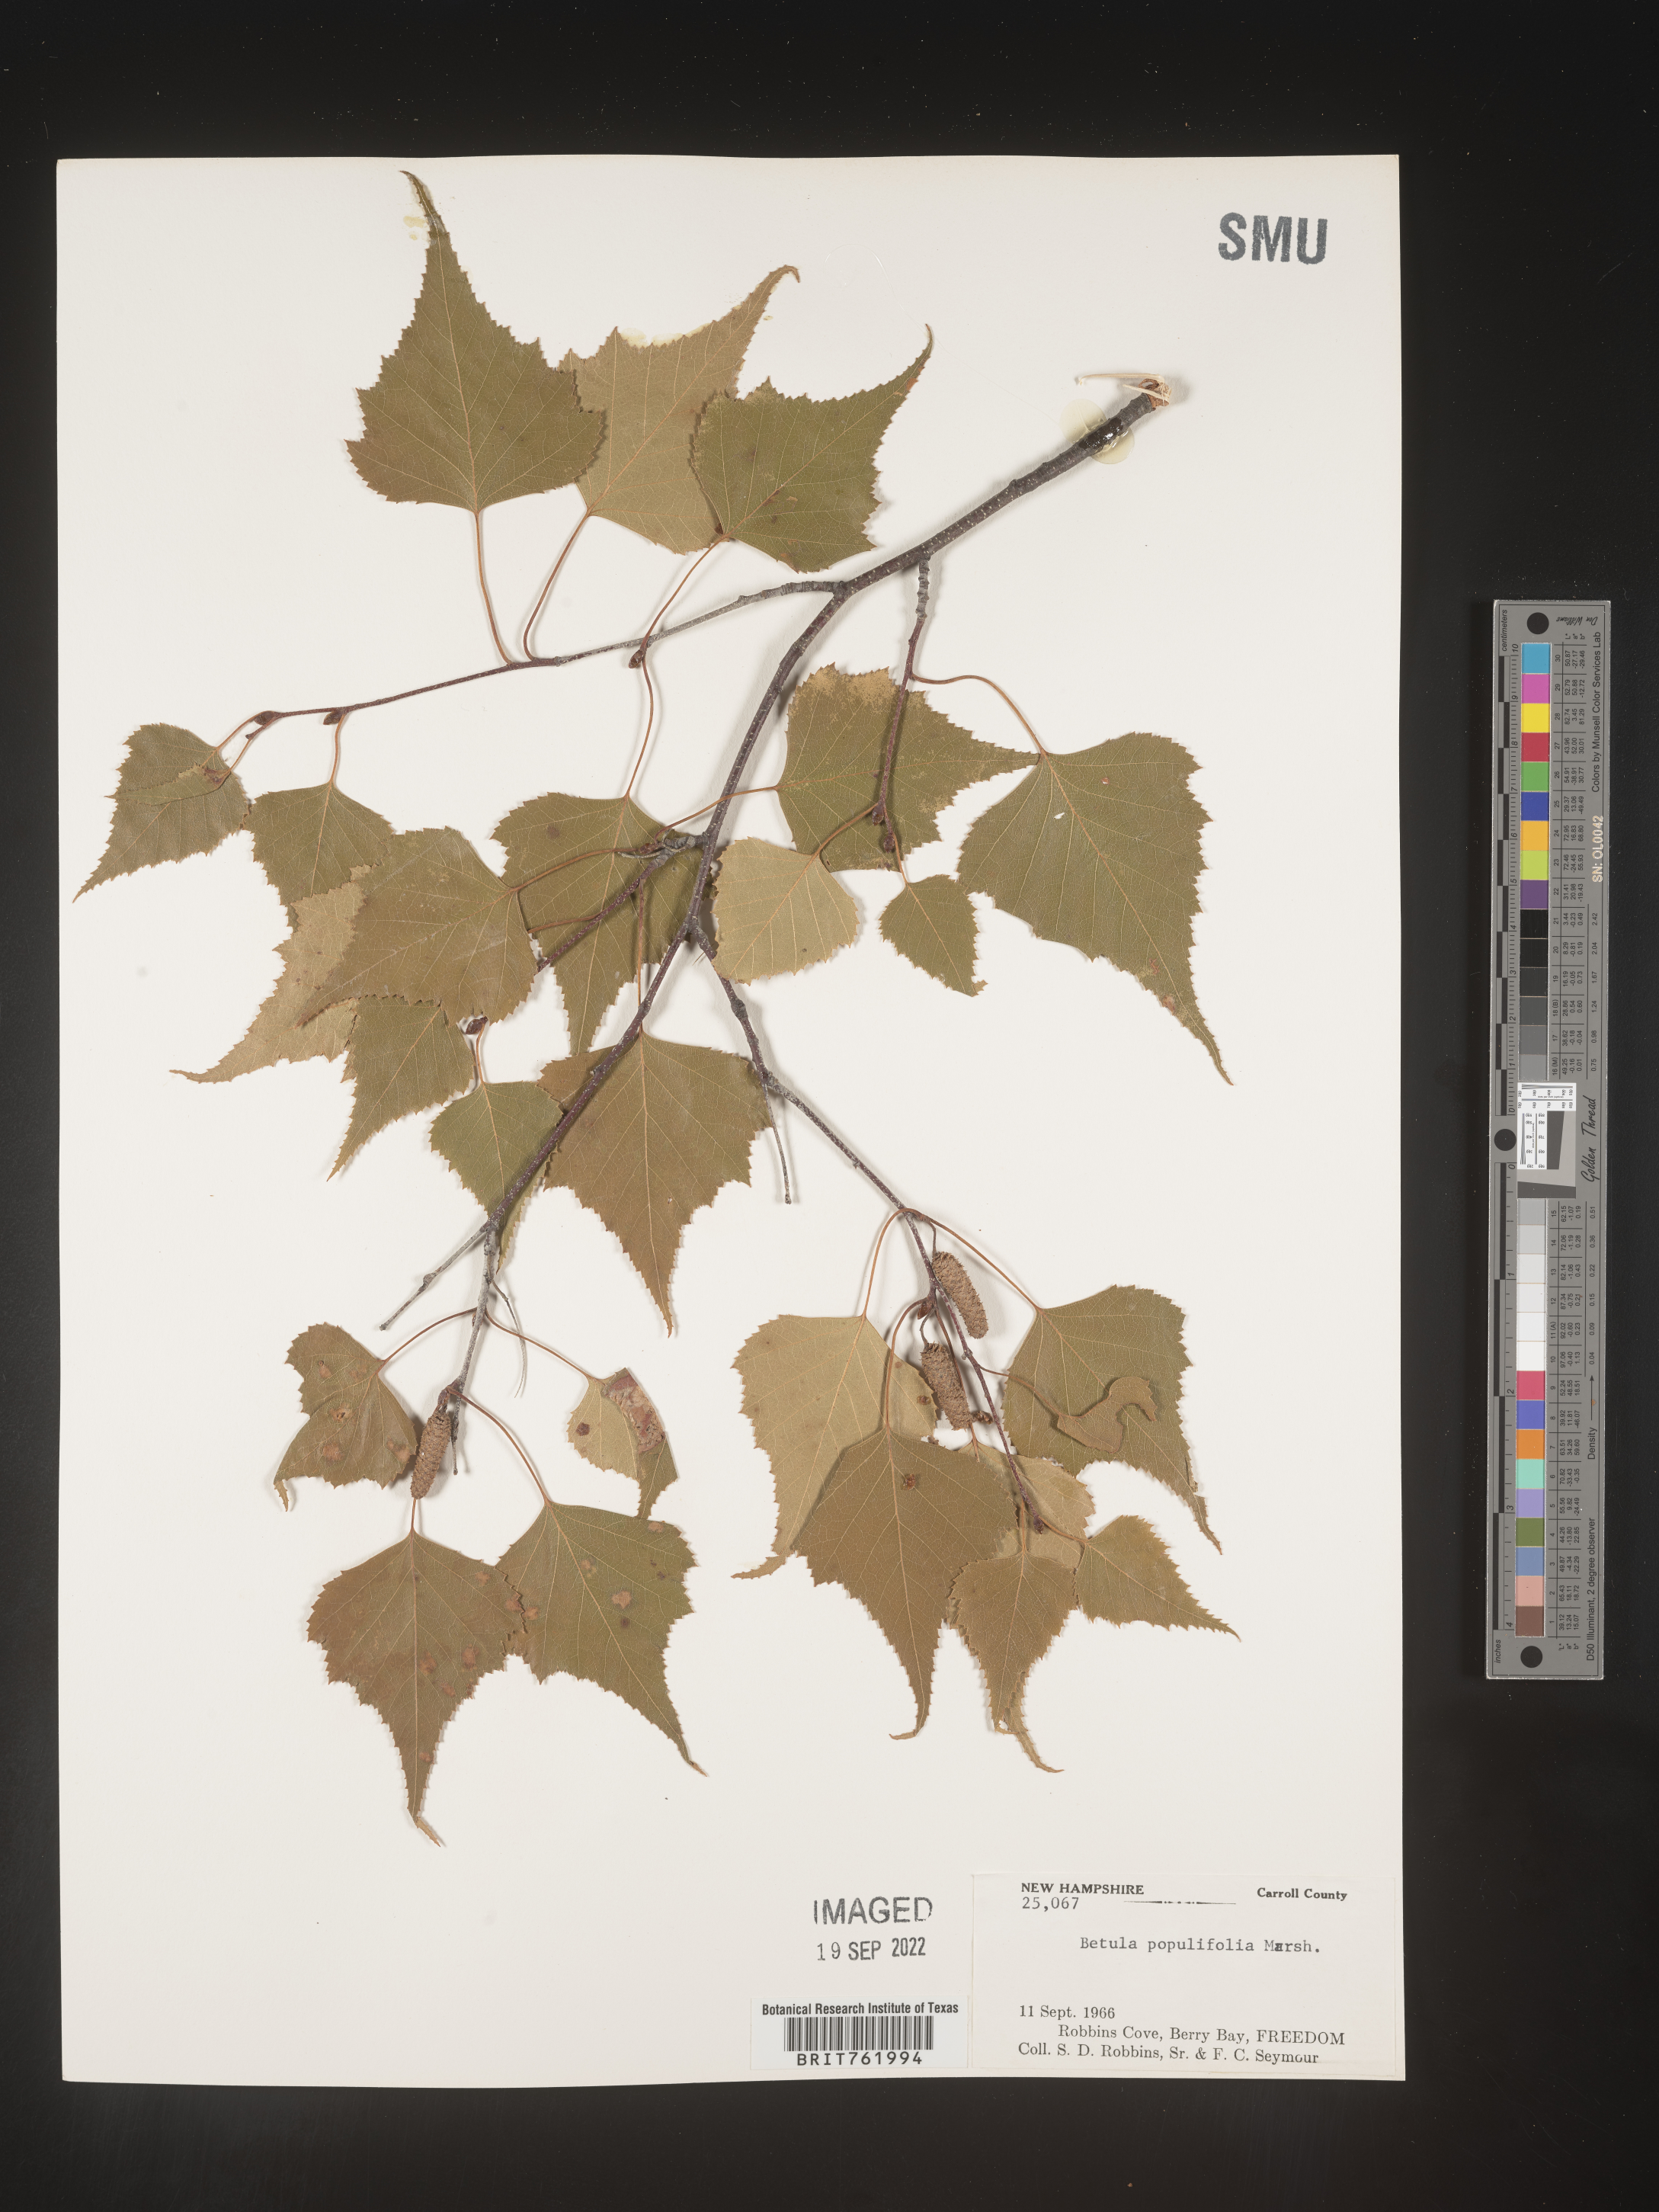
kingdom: Plantae
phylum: Tracheophyta
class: Magnoliopsida
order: Fagales
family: Betulaceae
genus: Betula
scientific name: Betula populifolia
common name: Fire birch
